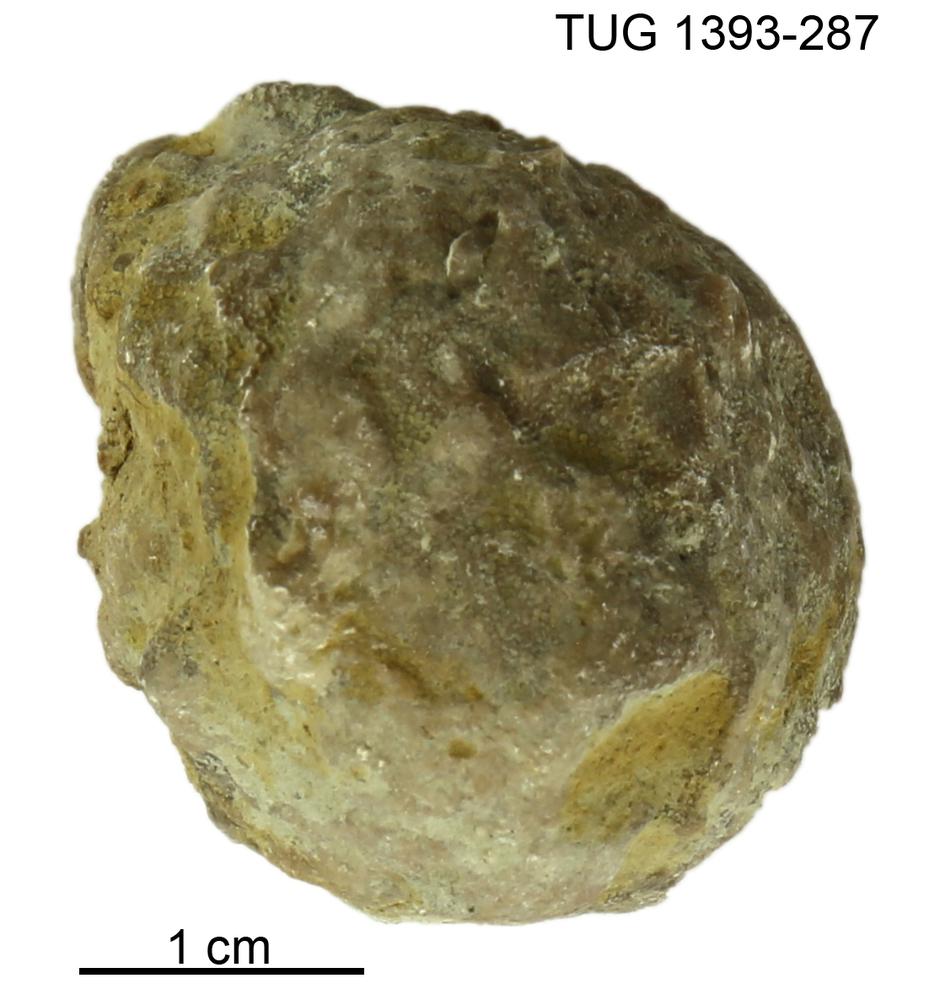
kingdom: Animalia
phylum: Bryozoa
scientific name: Bryozoa
